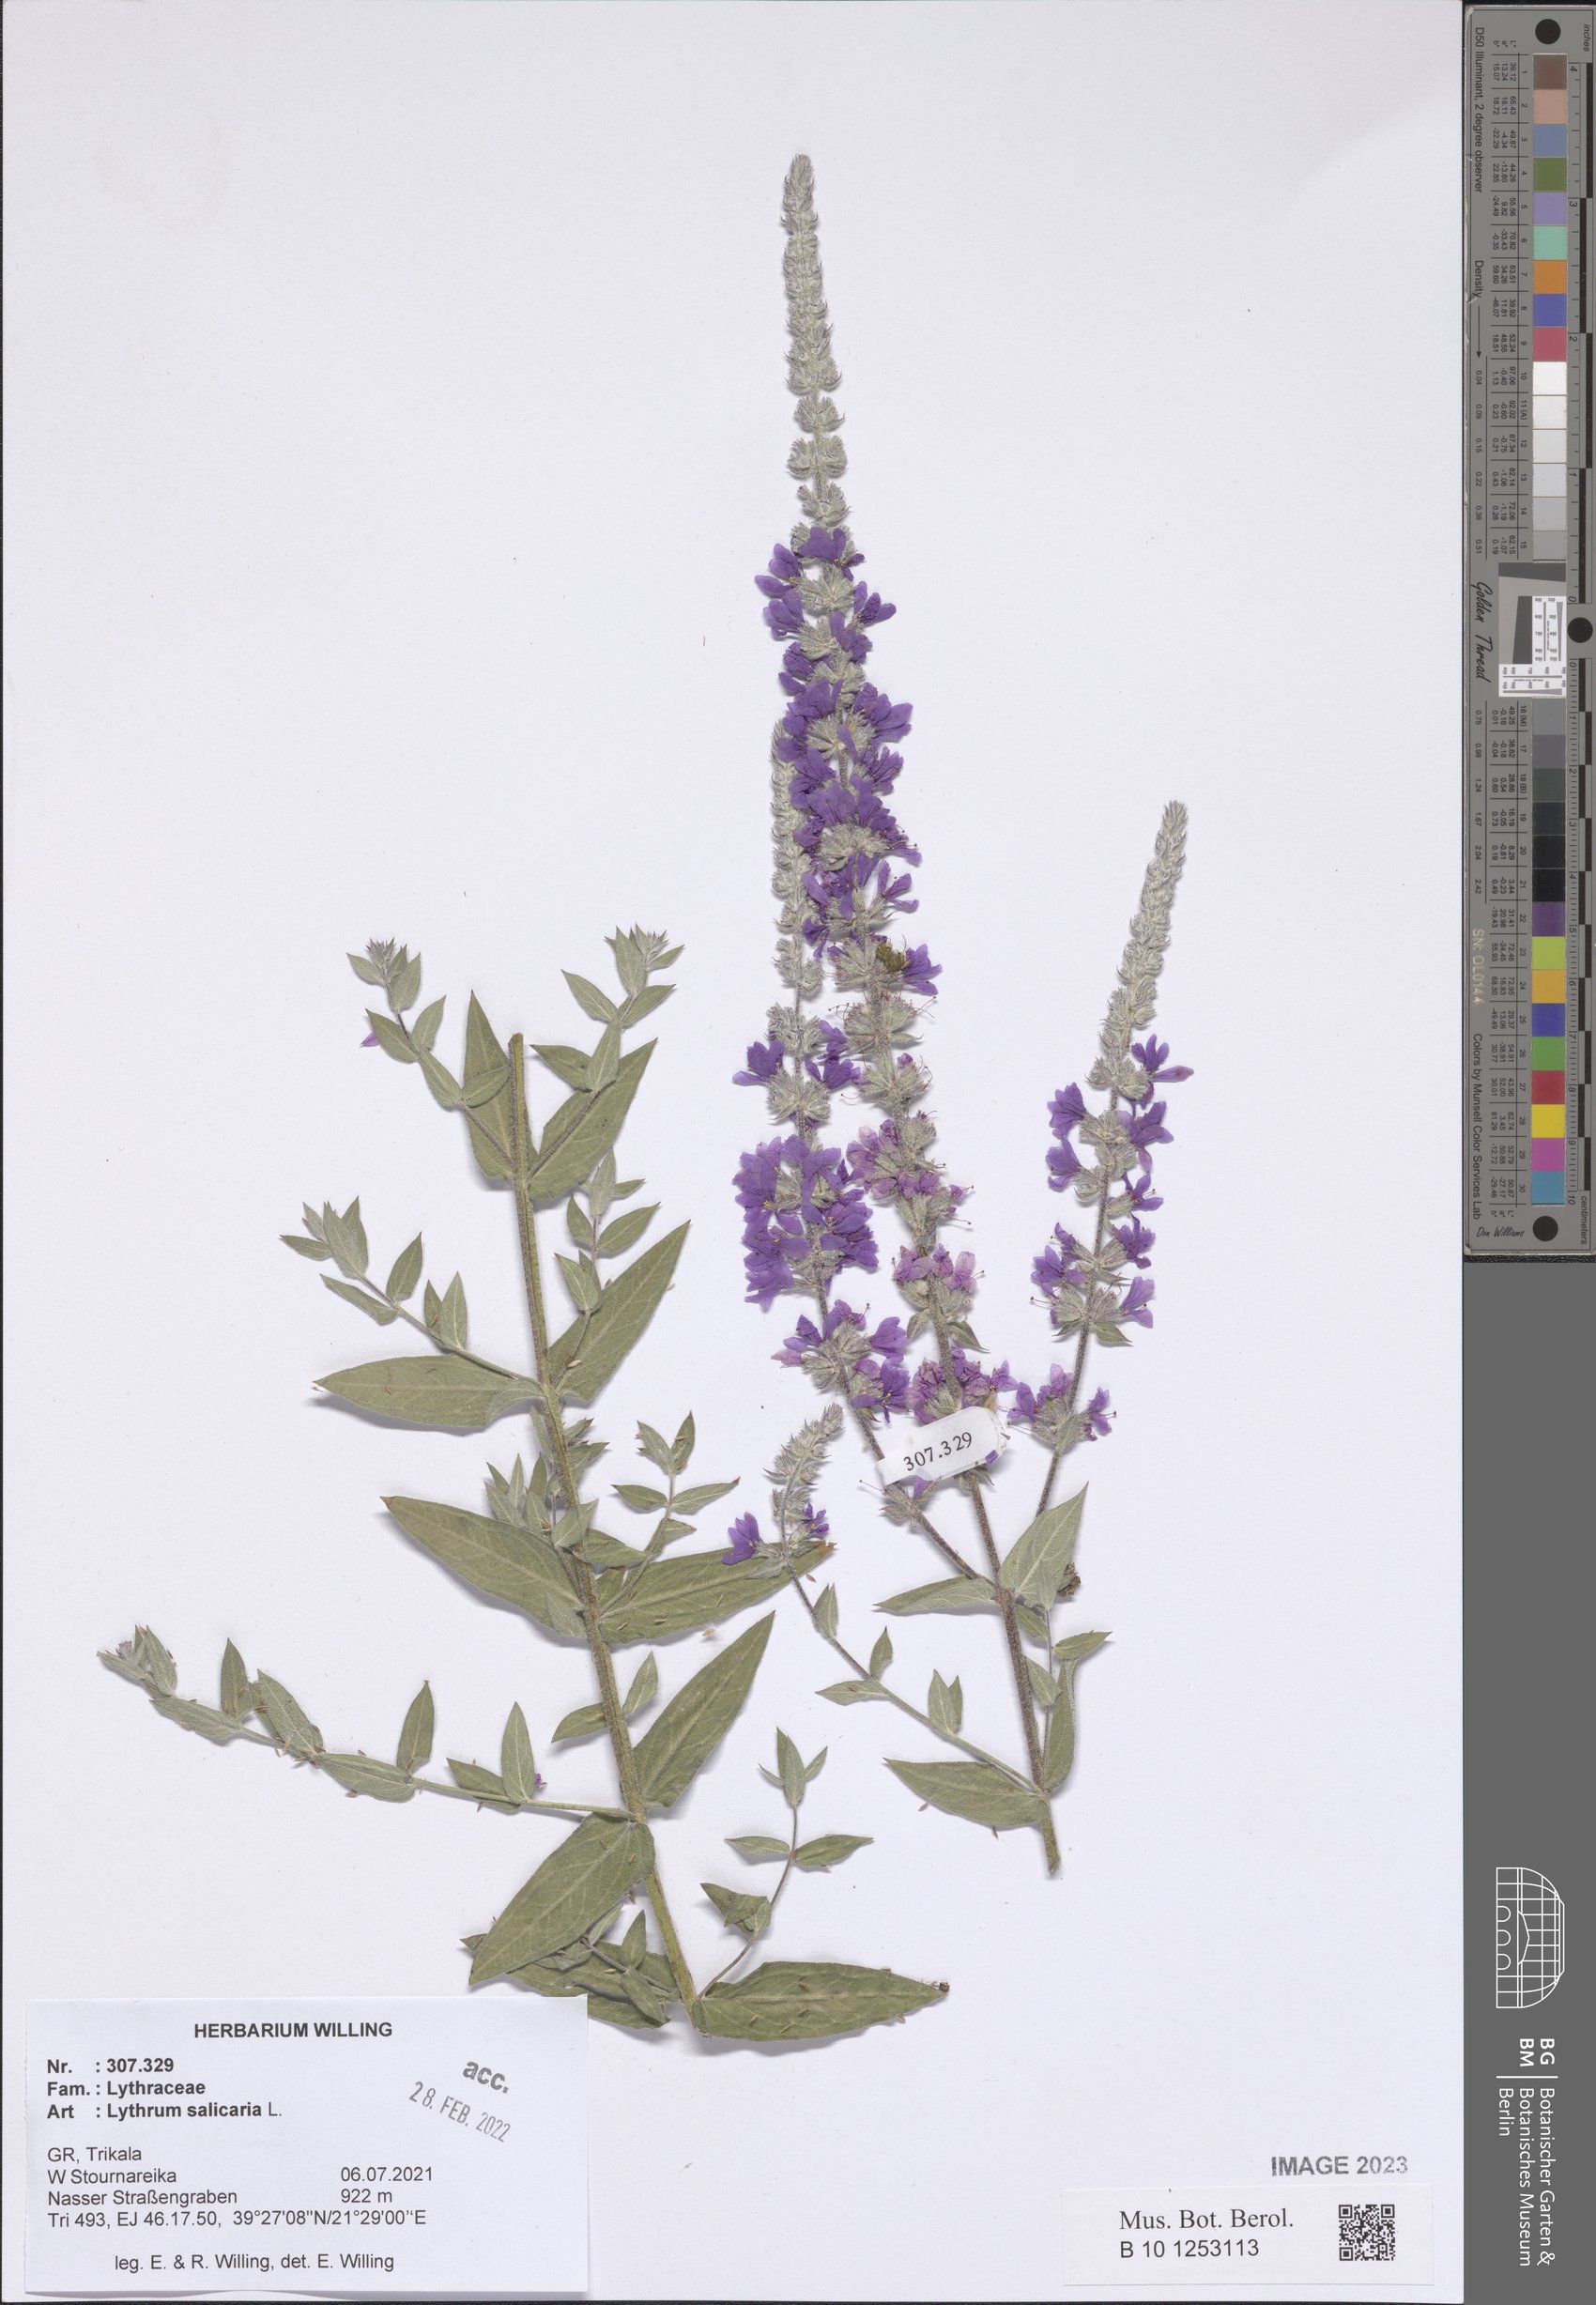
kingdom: Plantae
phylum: Tracheophyta
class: Magnoliopsida
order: Myrtales
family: Lythraceae
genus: Lythrum
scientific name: Lythrum salicaria
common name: Purple loosestrife
